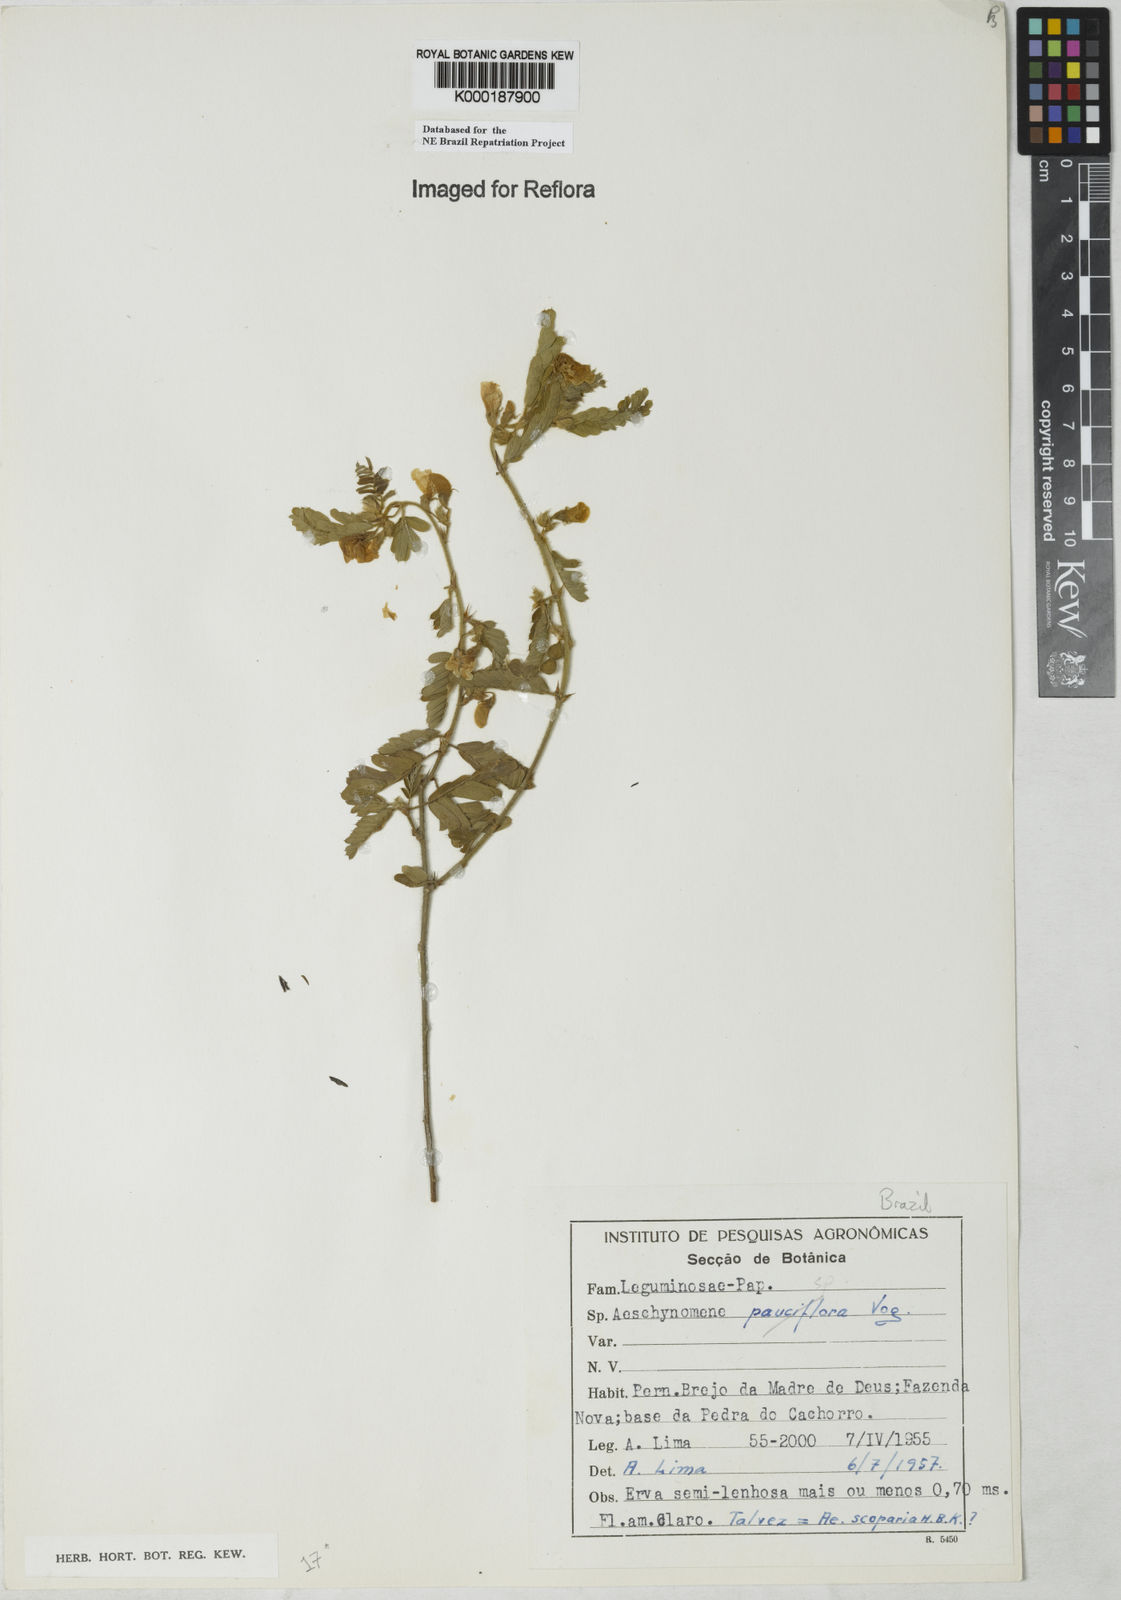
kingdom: Plantae
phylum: Tracheophyta
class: Magnoliopsida
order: Fabales
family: Fabaceae
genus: Aeschynomene
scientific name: Aeschynomene
